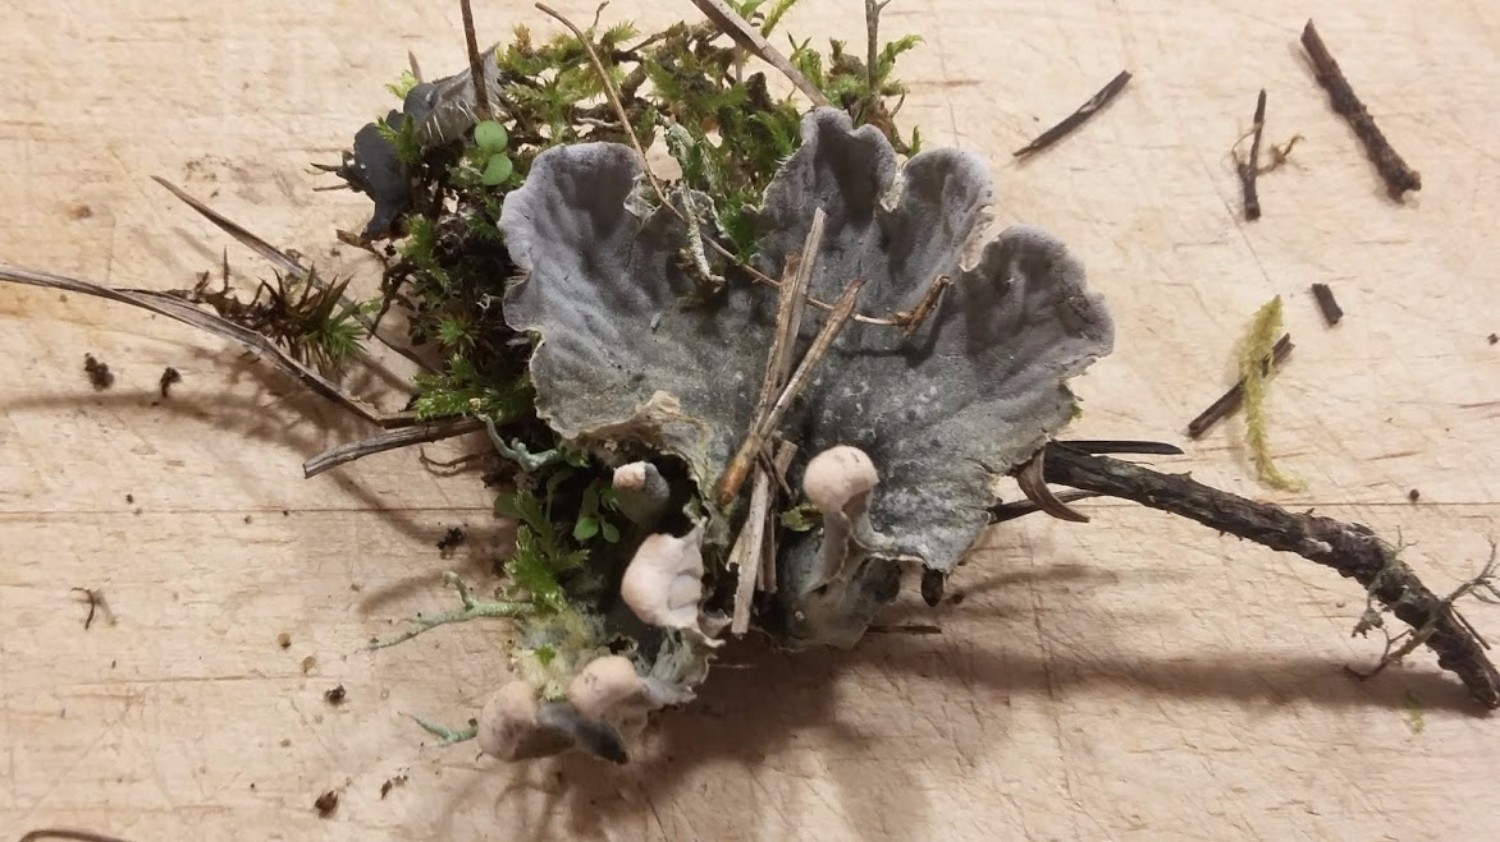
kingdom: Fungi
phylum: Ascomycota
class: Lecanoromycetes
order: Peltigerales
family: Peltigeraceae
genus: Peltigera
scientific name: Peltigera canina
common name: hunde-skjoldlav
